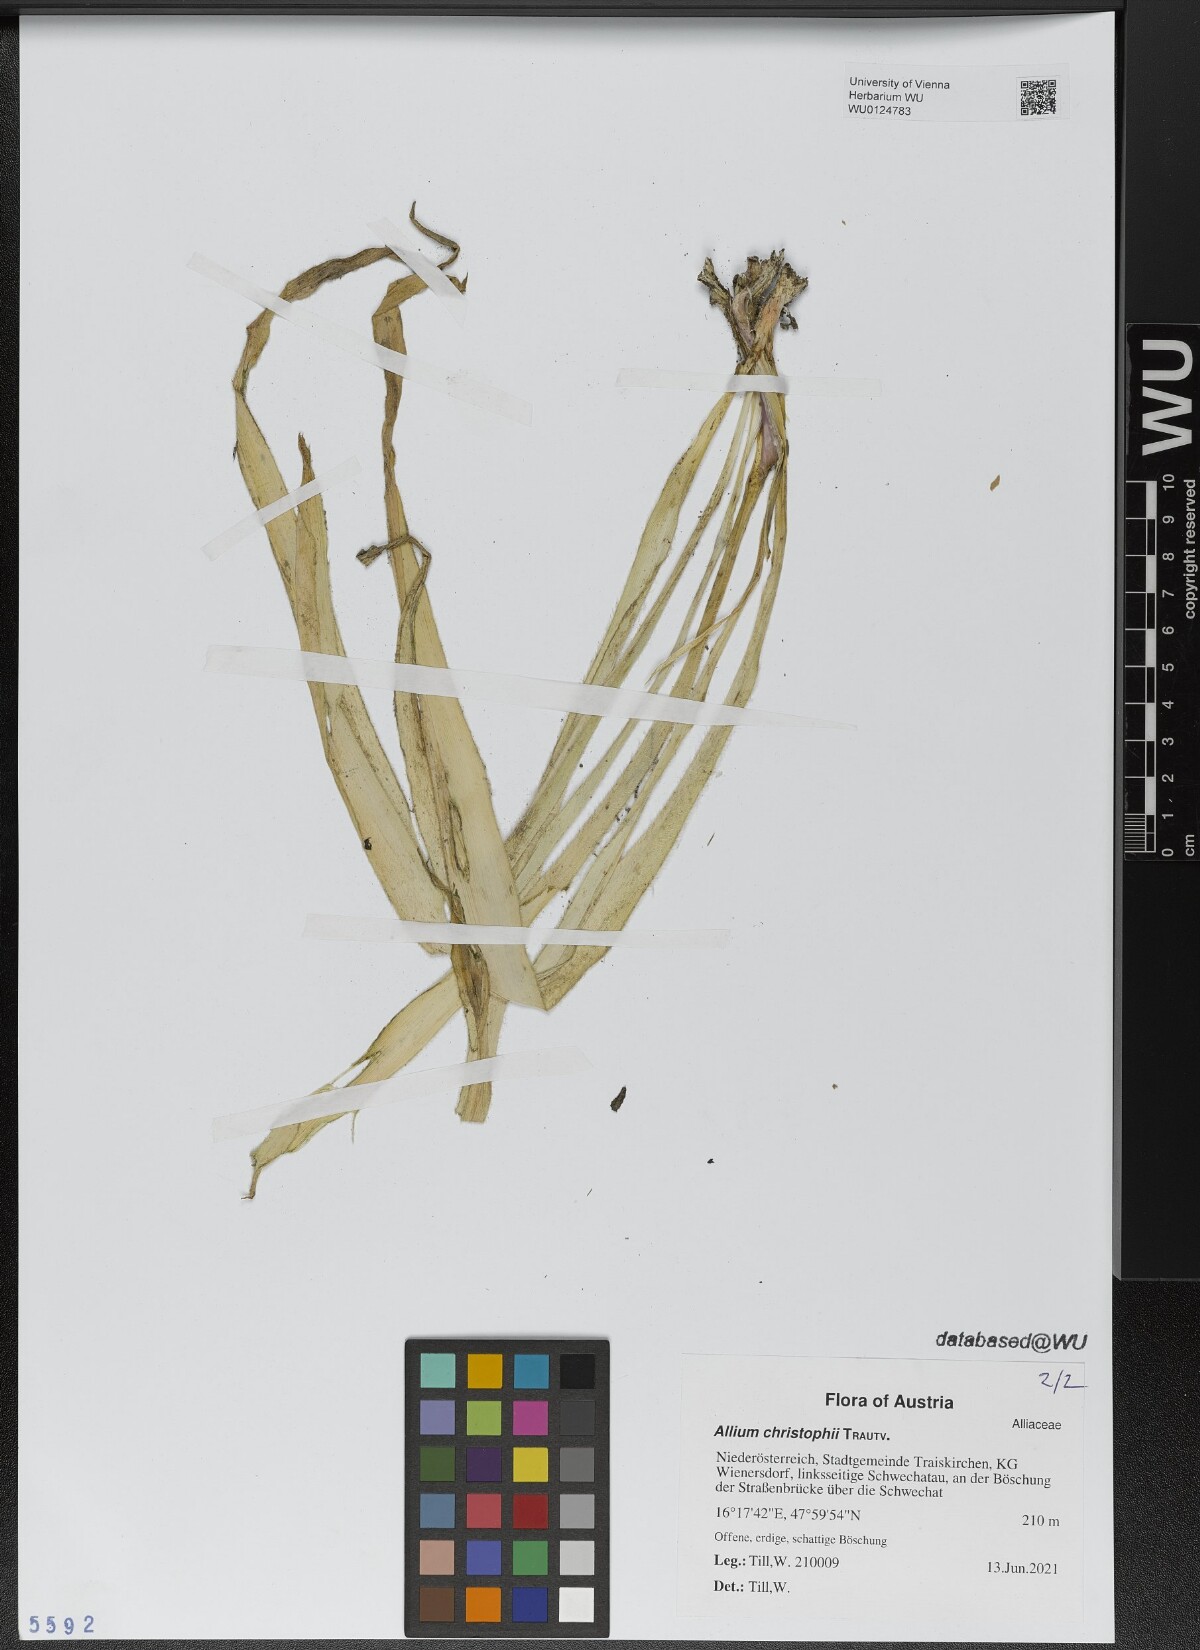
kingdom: Plantae
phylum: Tracheophyta
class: Liliopsida
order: Asparagales
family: Amaryllidaceae
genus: Allium
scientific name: Allium christophii
